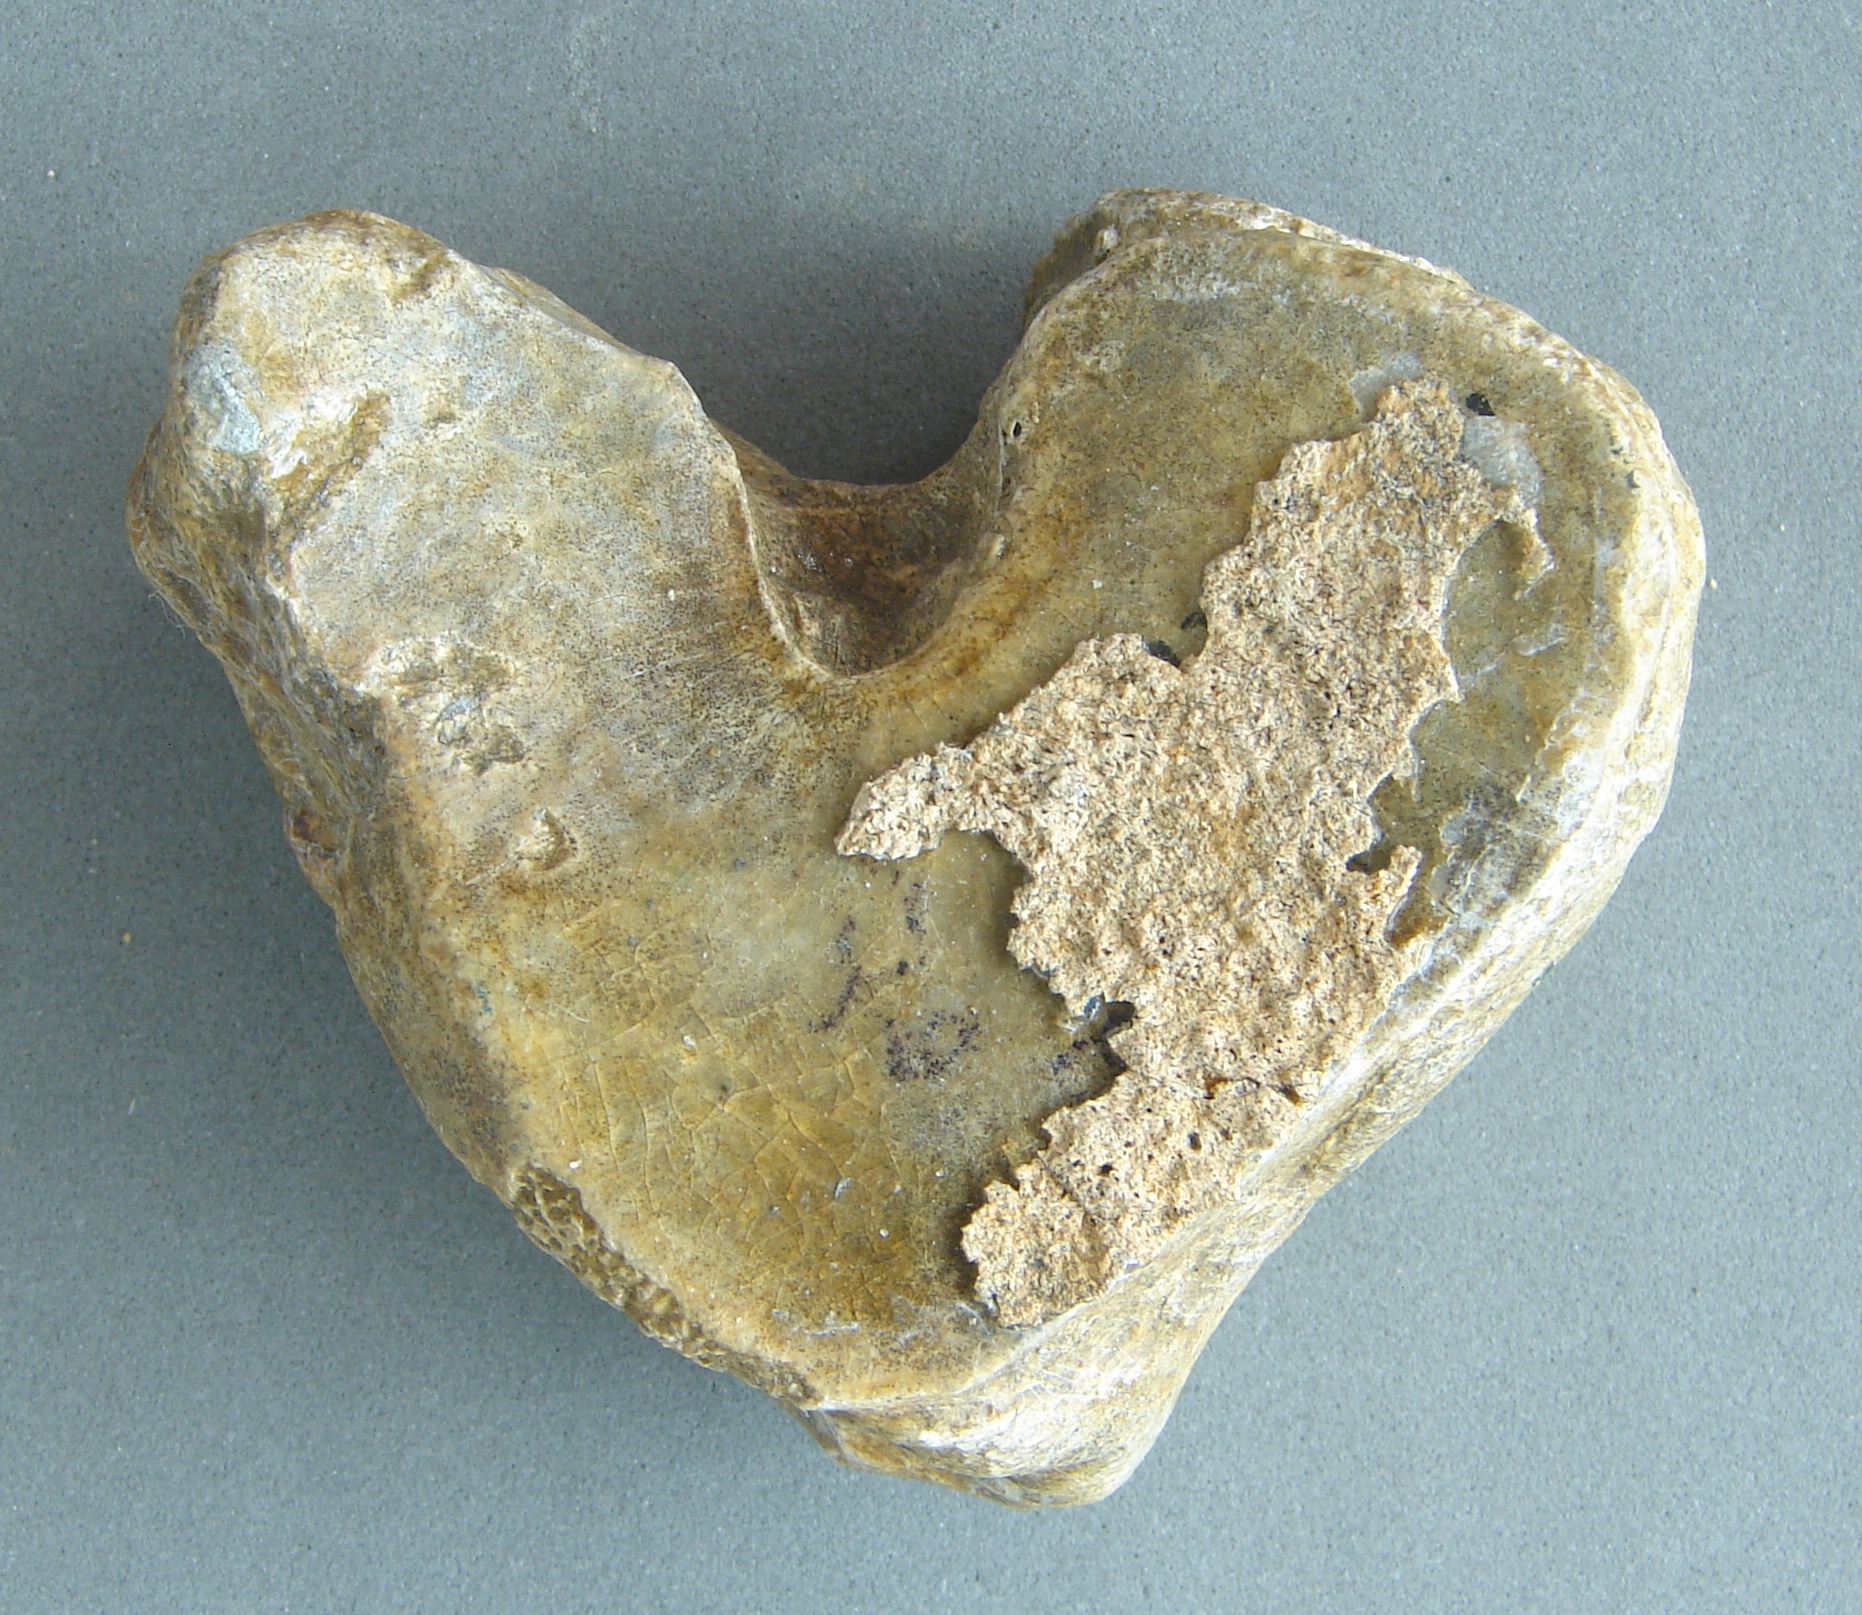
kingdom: Animalia
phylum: Chordata
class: Mammalia
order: Perissodactyla
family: Rhinocerotidae
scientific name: Rhinocerotidae
